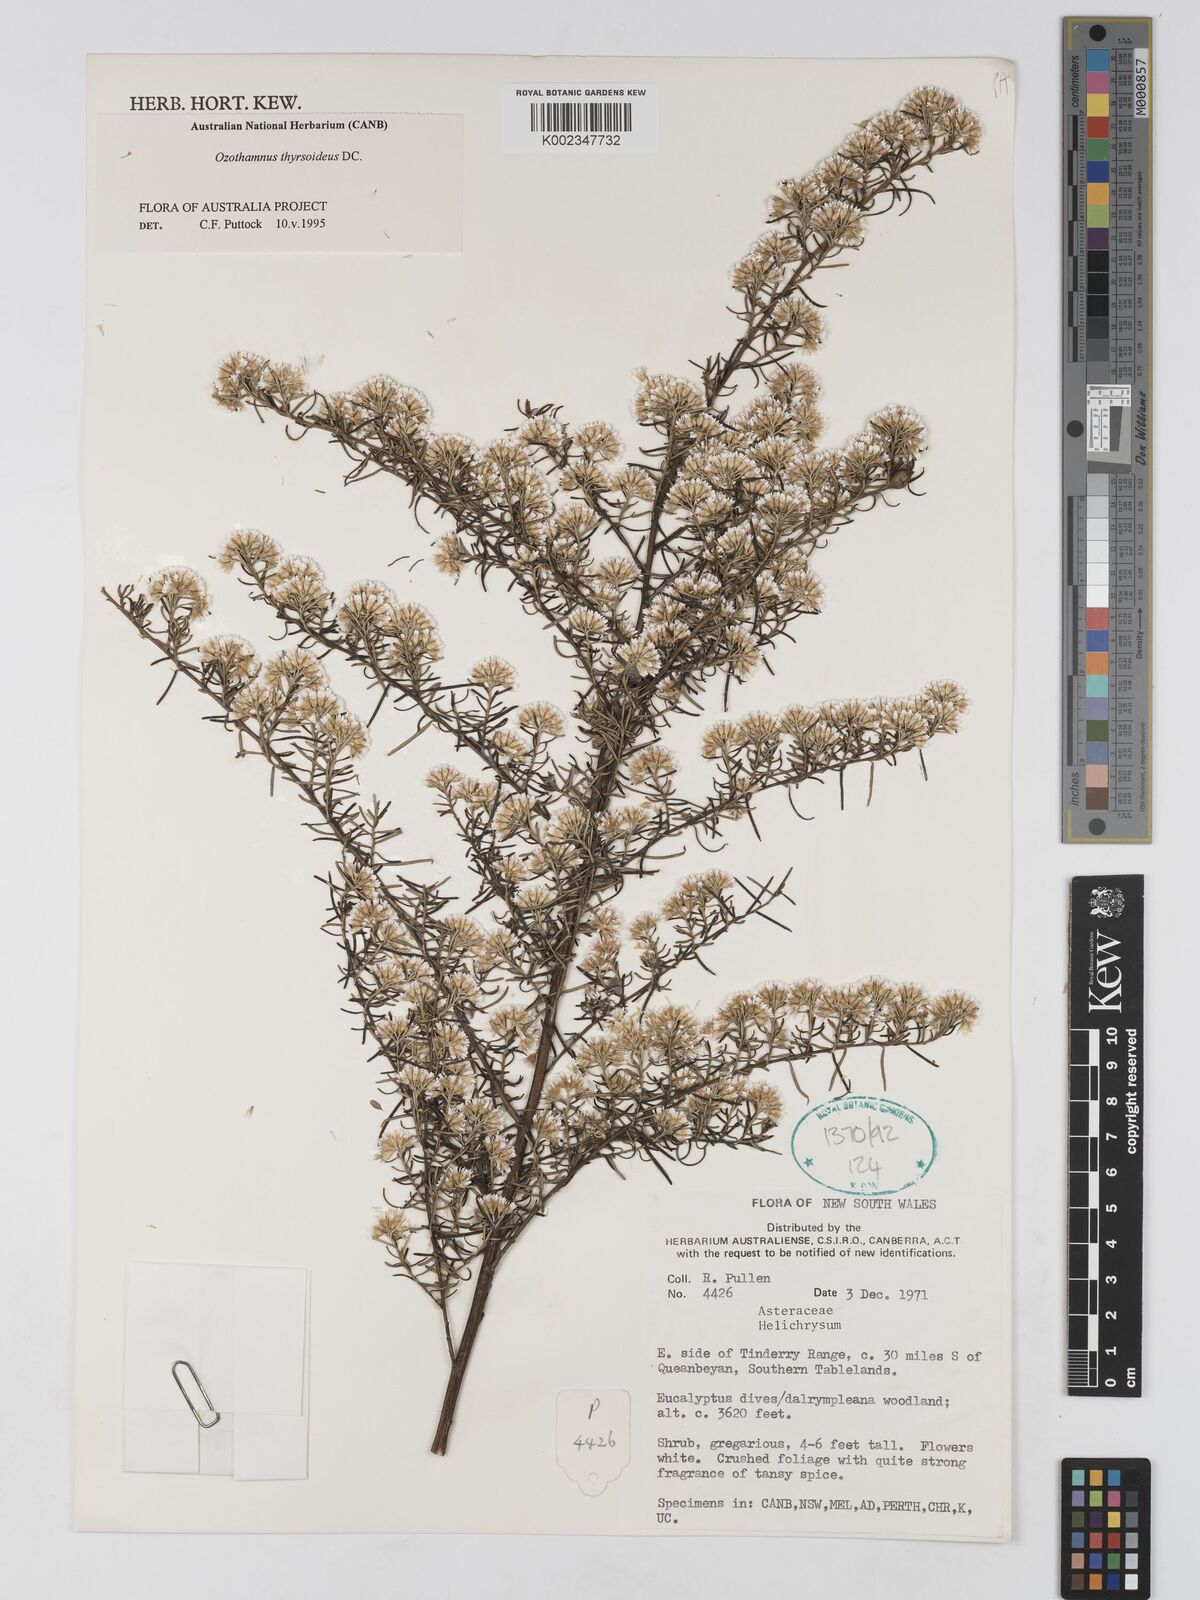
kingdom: Plantae
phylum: Tracheophyta
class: Magnoliopsida
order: Asterales
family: Asteraceae
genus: Ozothamnus
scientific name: Ozothamnus thyrsoideus
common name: Snow-in-summer
